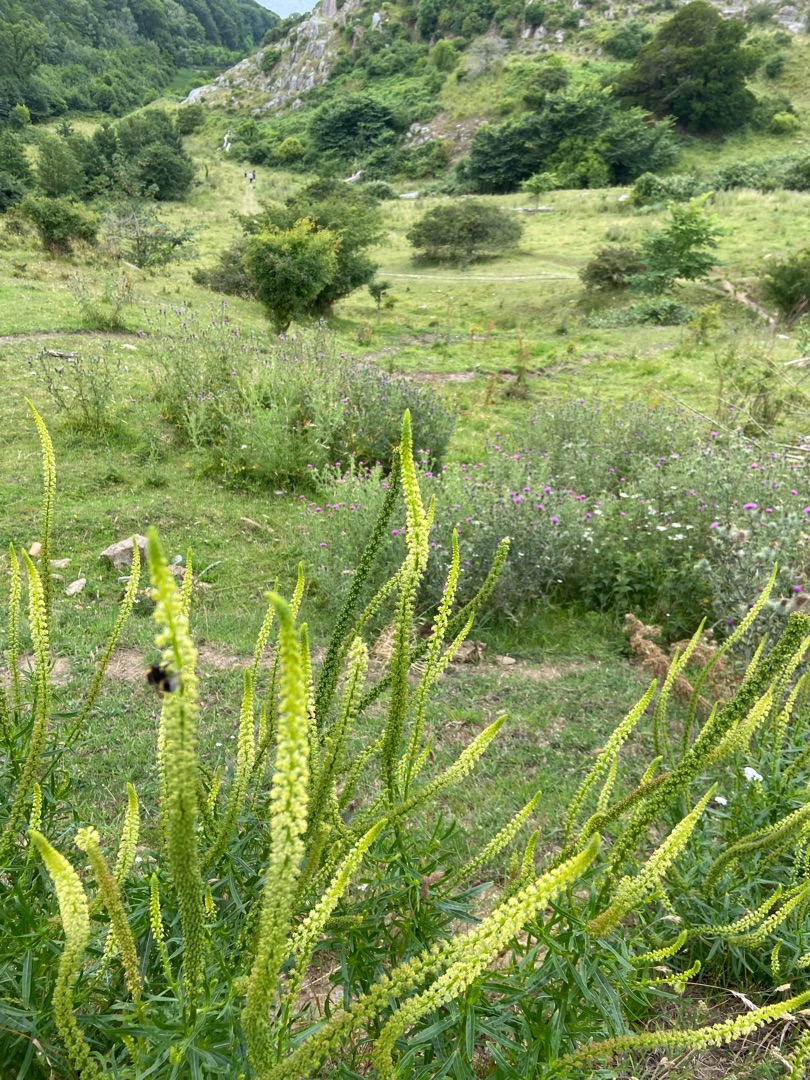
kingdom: Plantae
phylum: Tracheophyta
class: Magnoliopsida
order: Brassicales
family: Resedaceae
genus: Reseda
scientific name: Reseda luteola
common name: Farve-reseda
